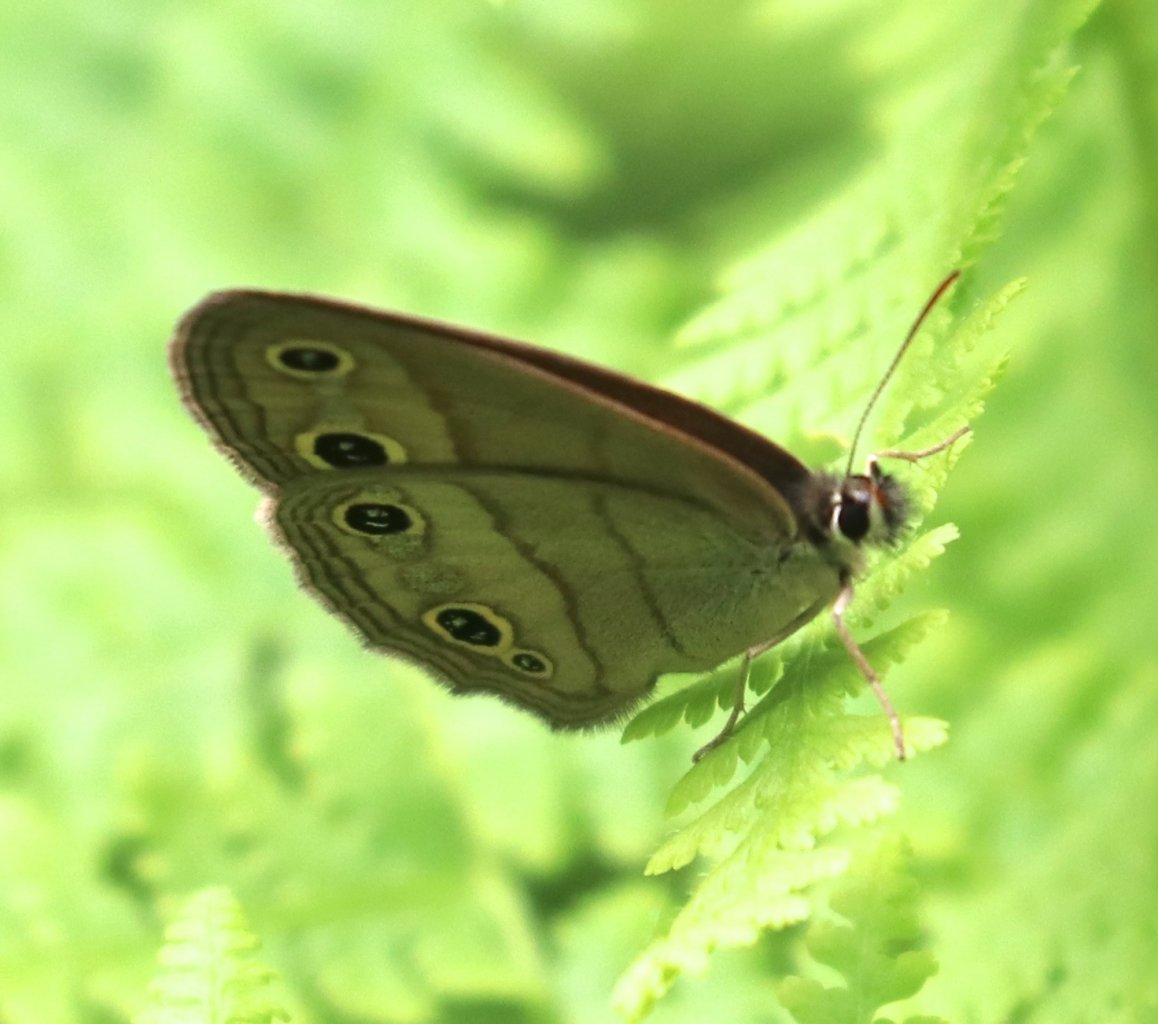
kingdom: Animalia
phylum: Arthropoda
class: Insecta
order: Lepidoptera
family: Nymphalidae
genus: Euptychia
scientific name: Euptychia cymela
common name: Little Wood Satyr
